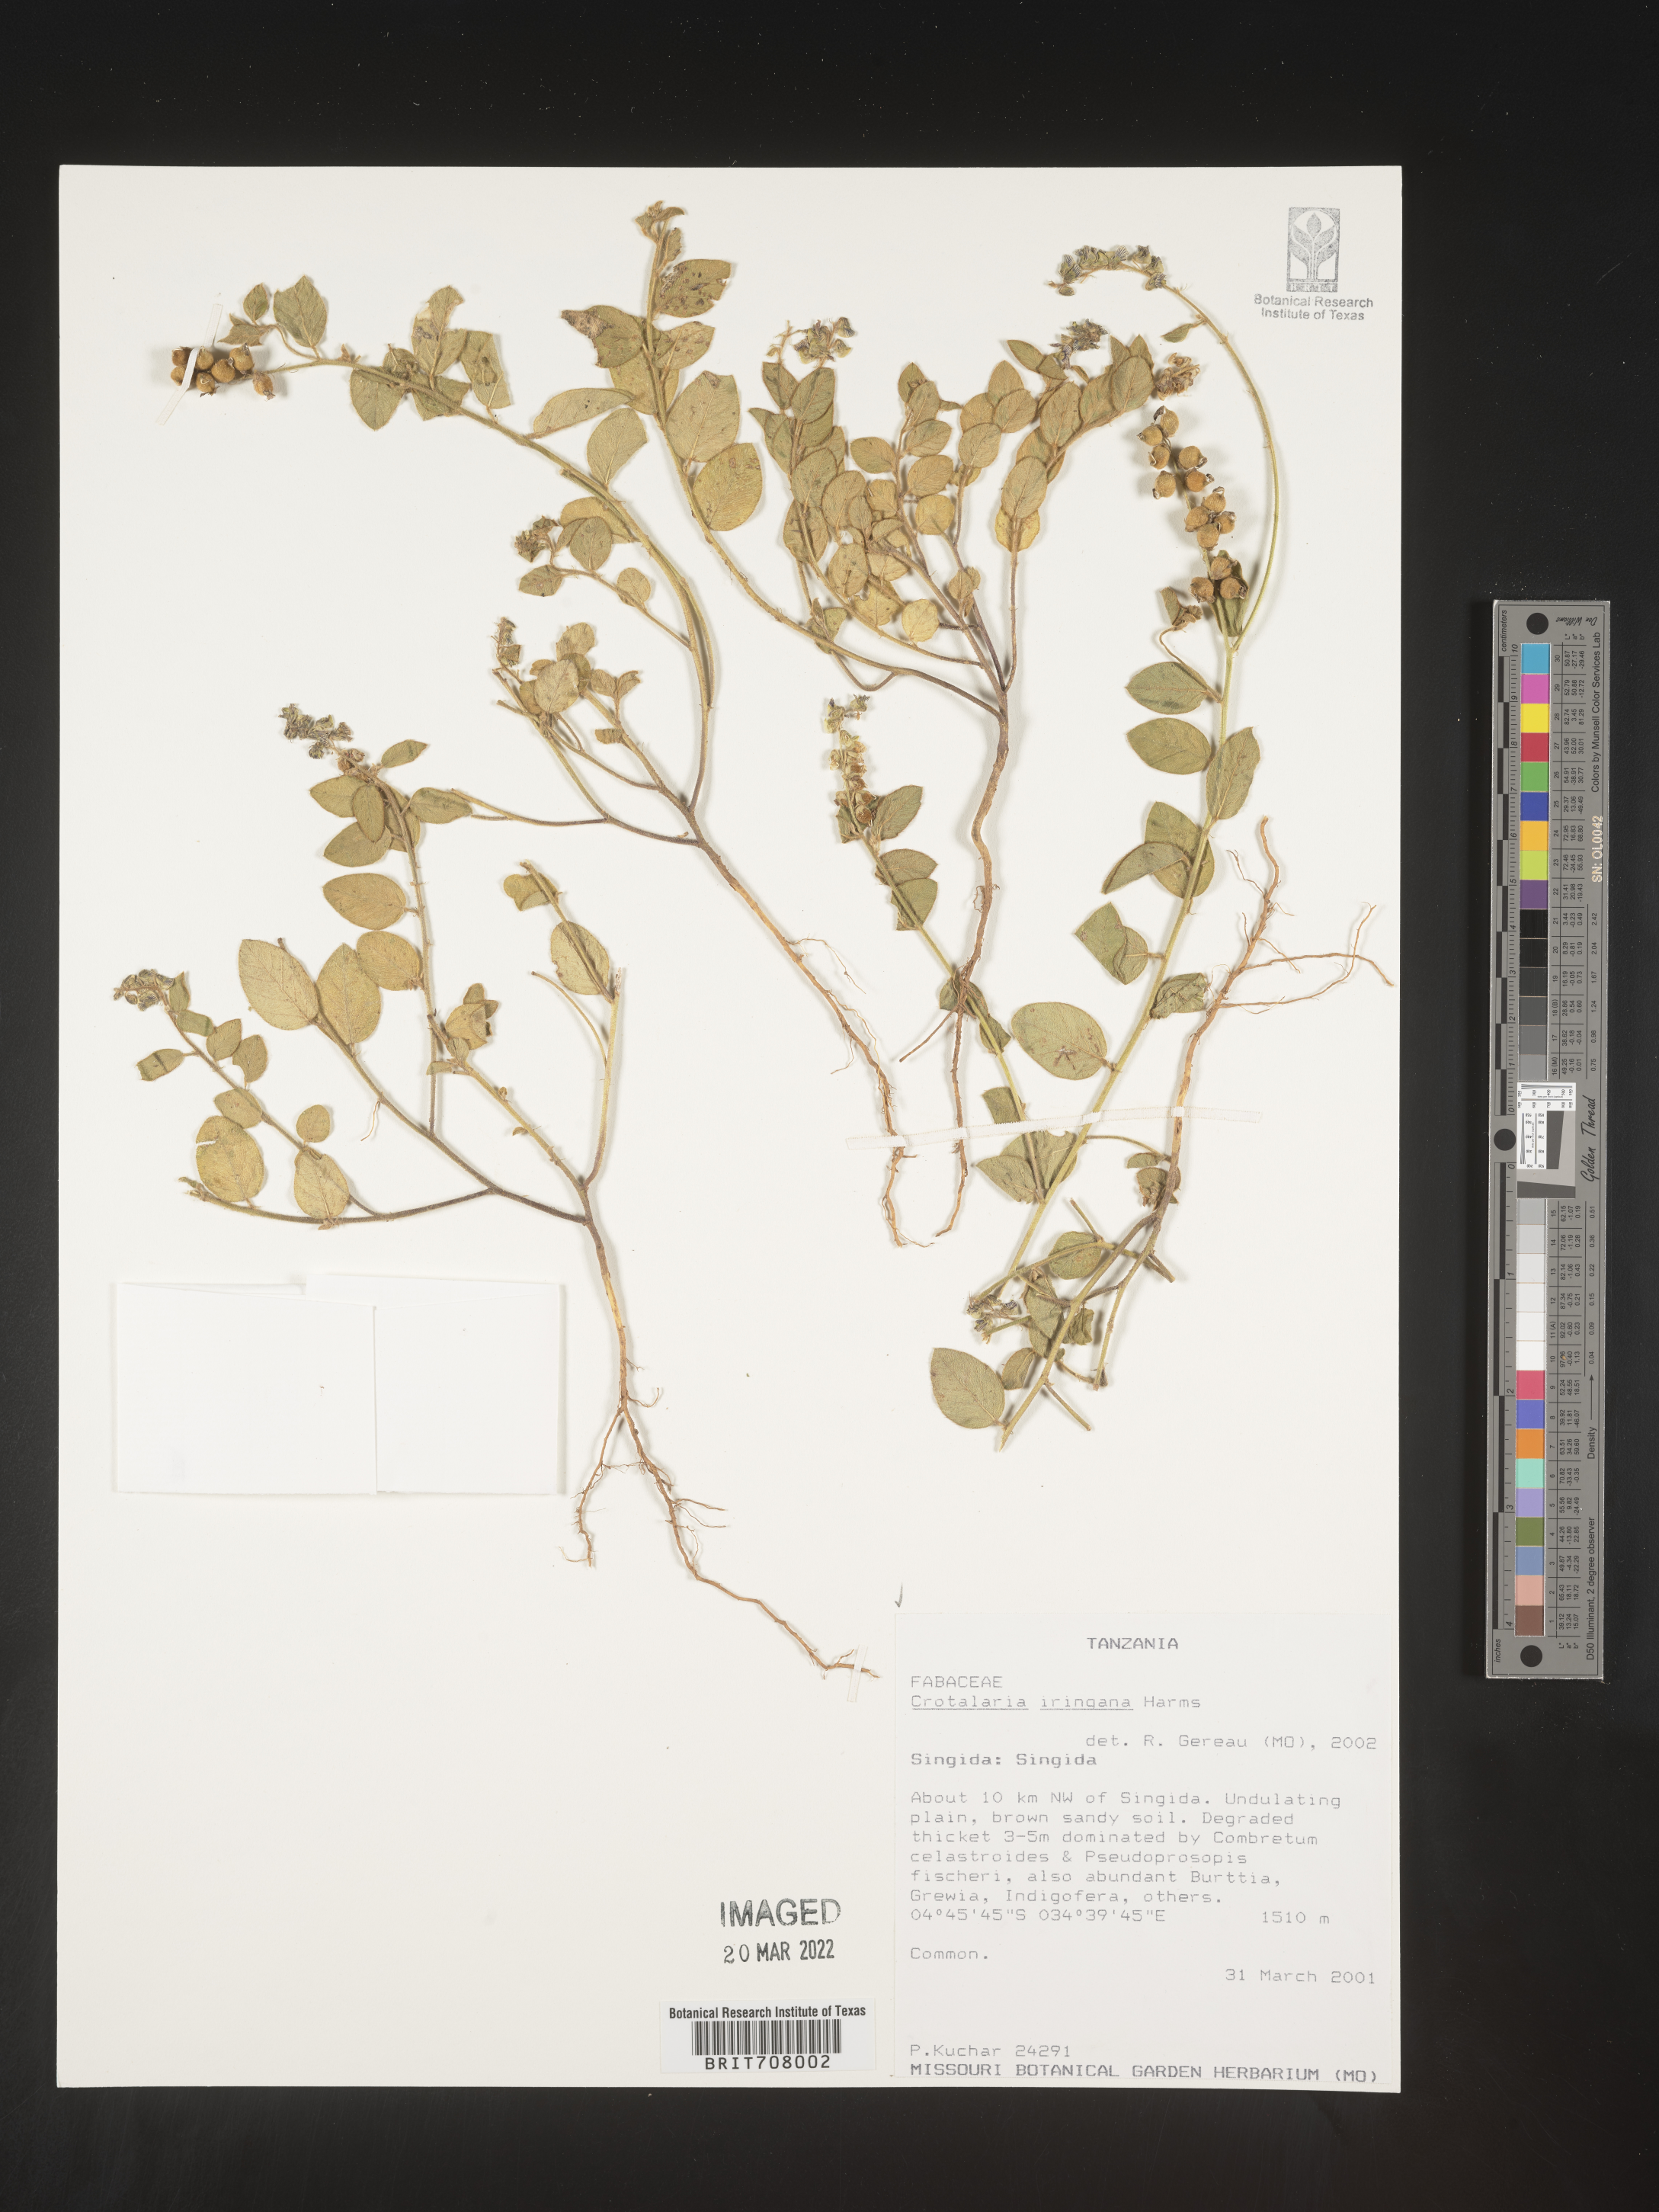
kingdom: Plantae
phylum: Tracheophyta
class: Magnoliopsida
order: Fabales
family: Fabaceae
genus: Crotalaria
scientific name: Crotalaria
